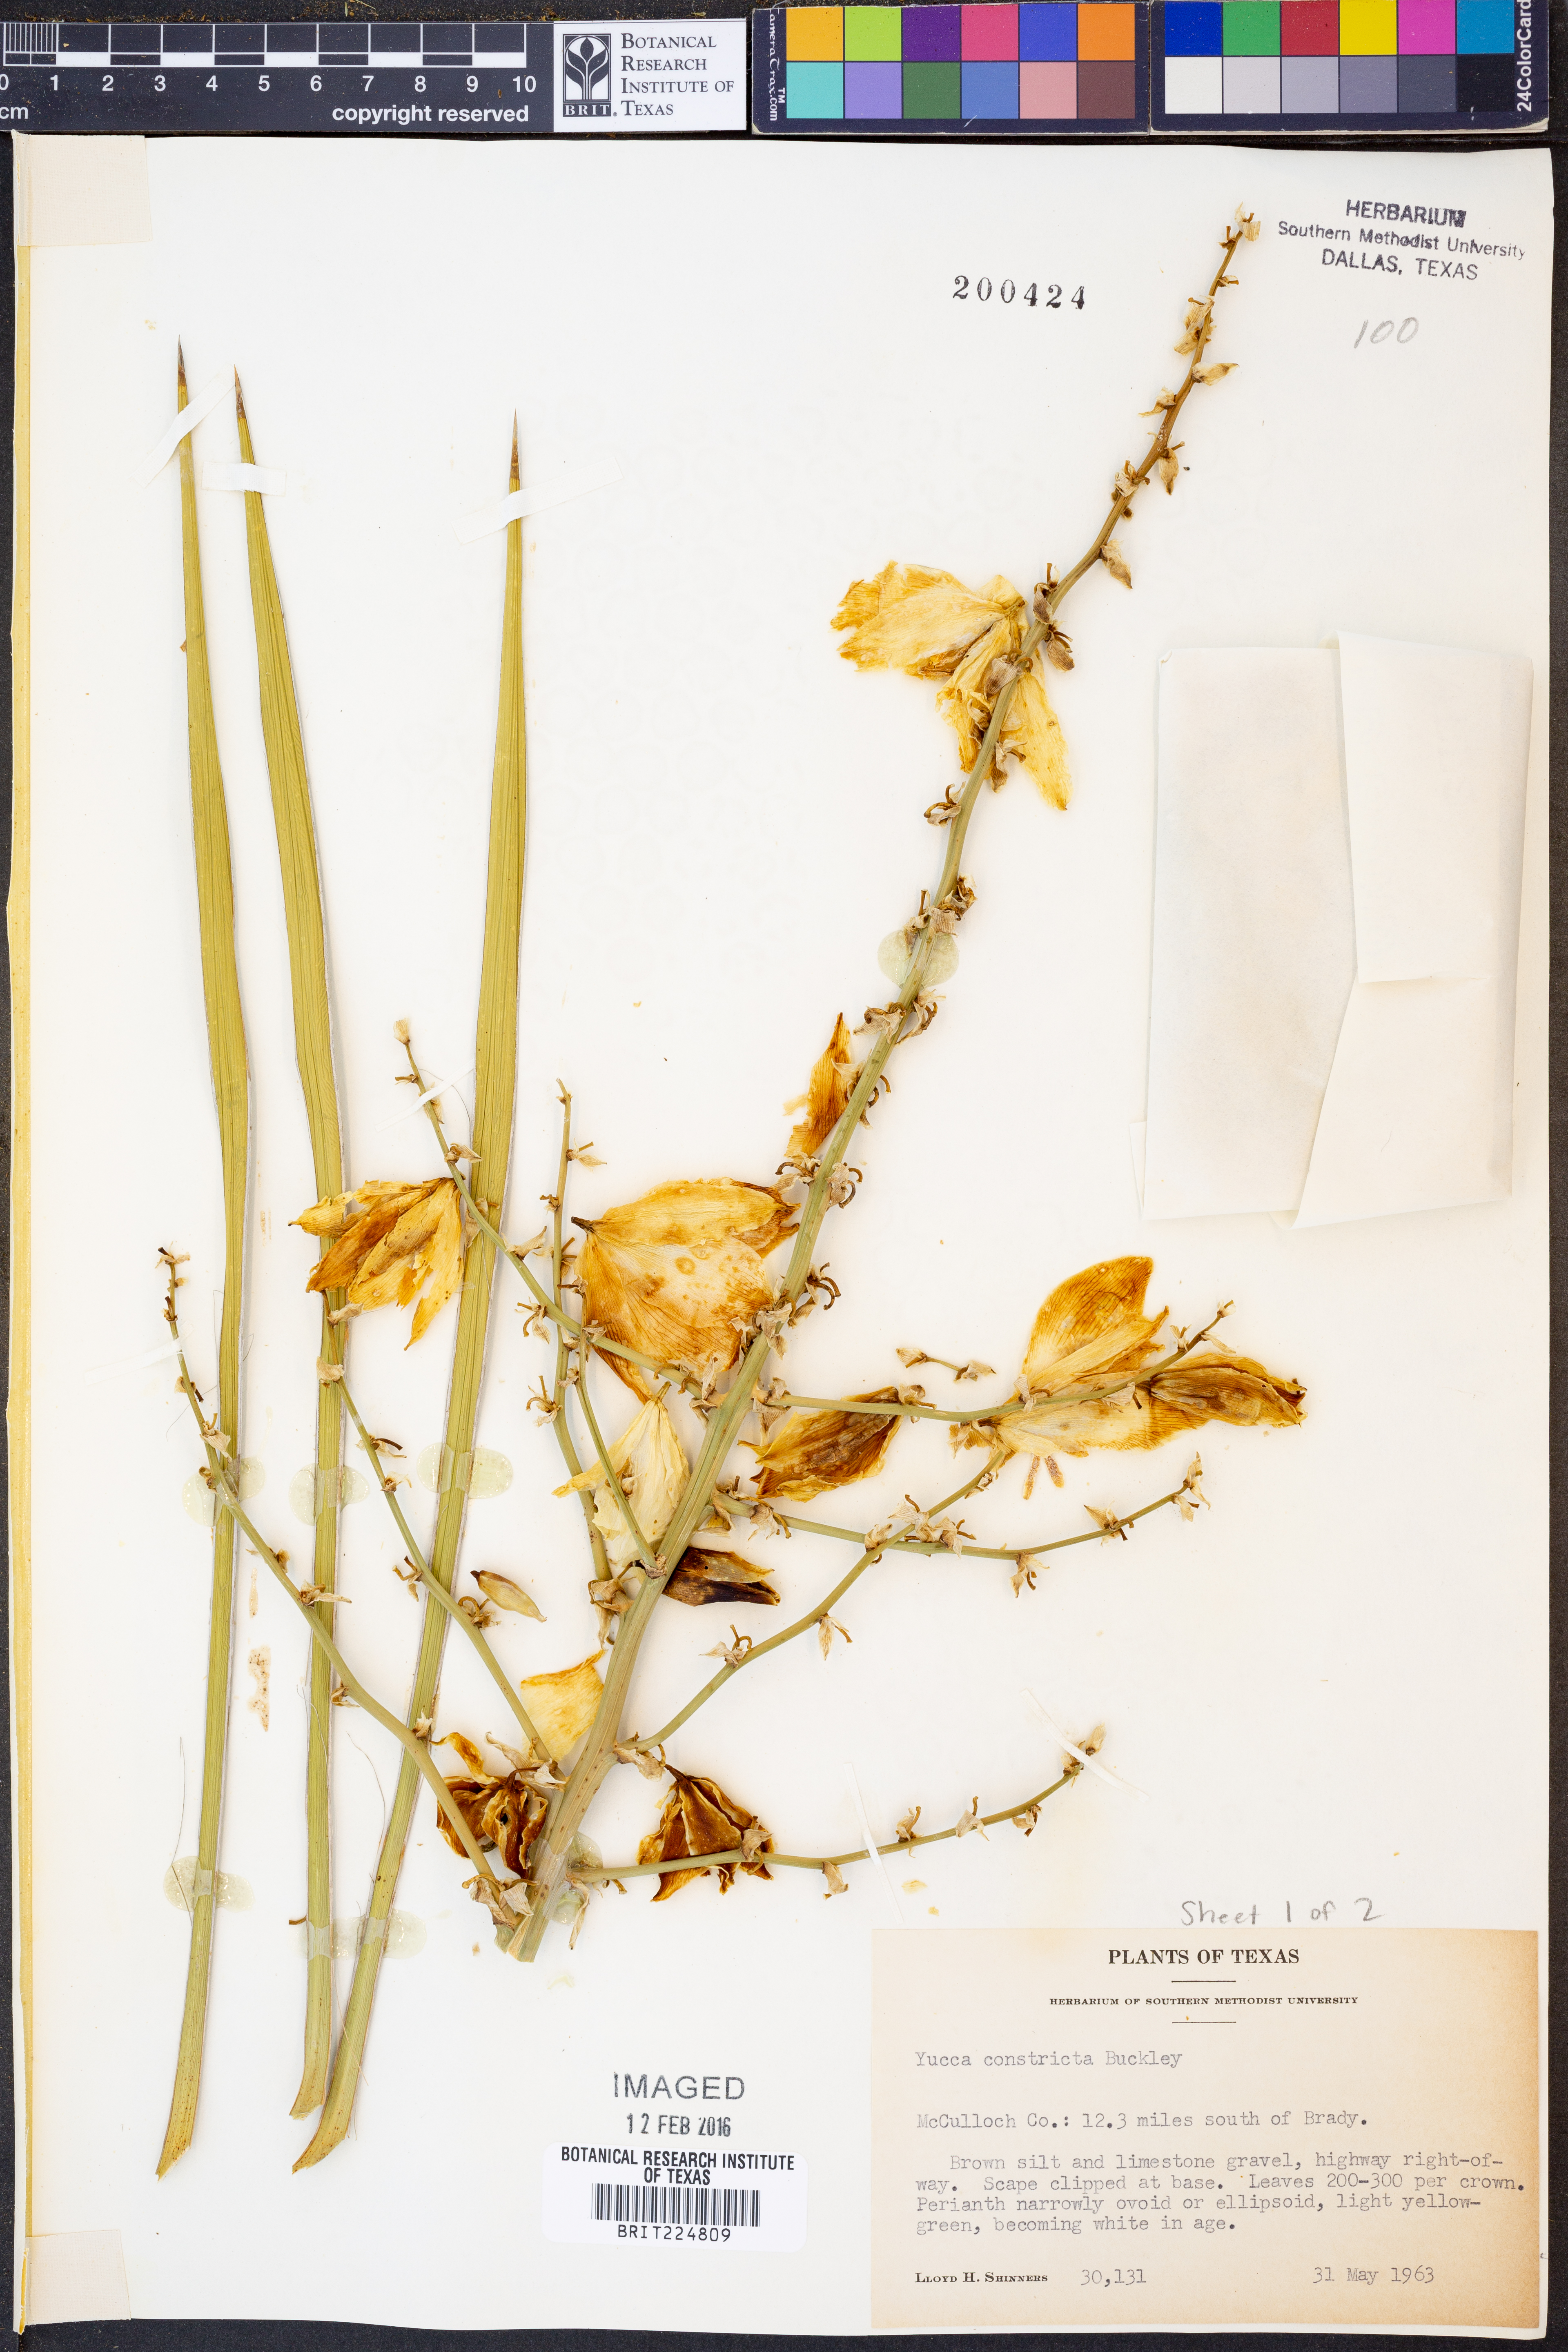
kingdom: Plantae
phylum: Tracheophyta
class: Liliopsida
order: Asparagales
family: Asparagaceae
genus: Yucca
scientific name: Yucca constricta
